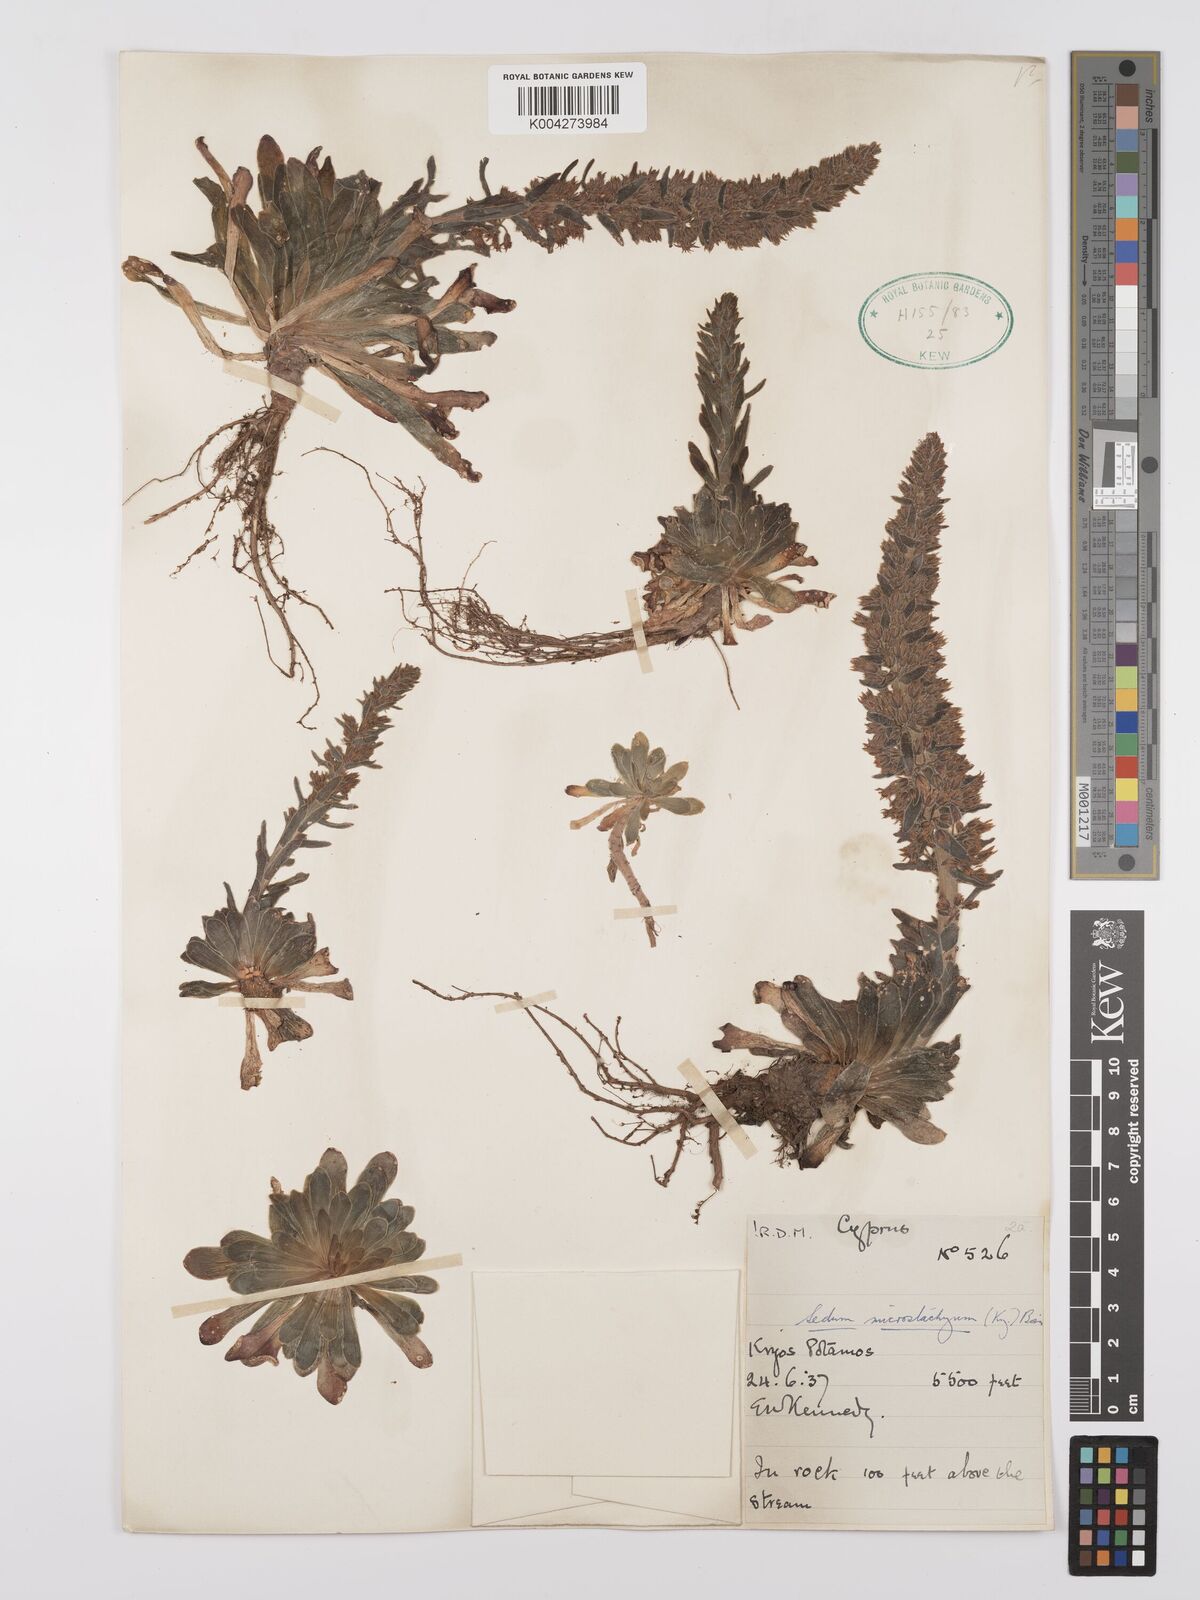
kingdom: Plantae
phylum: Tracheophyta
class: Magnoliopsida
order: Saxifragales
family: Crassulaceae
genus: Sedum
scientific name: Sedum microstachyum
